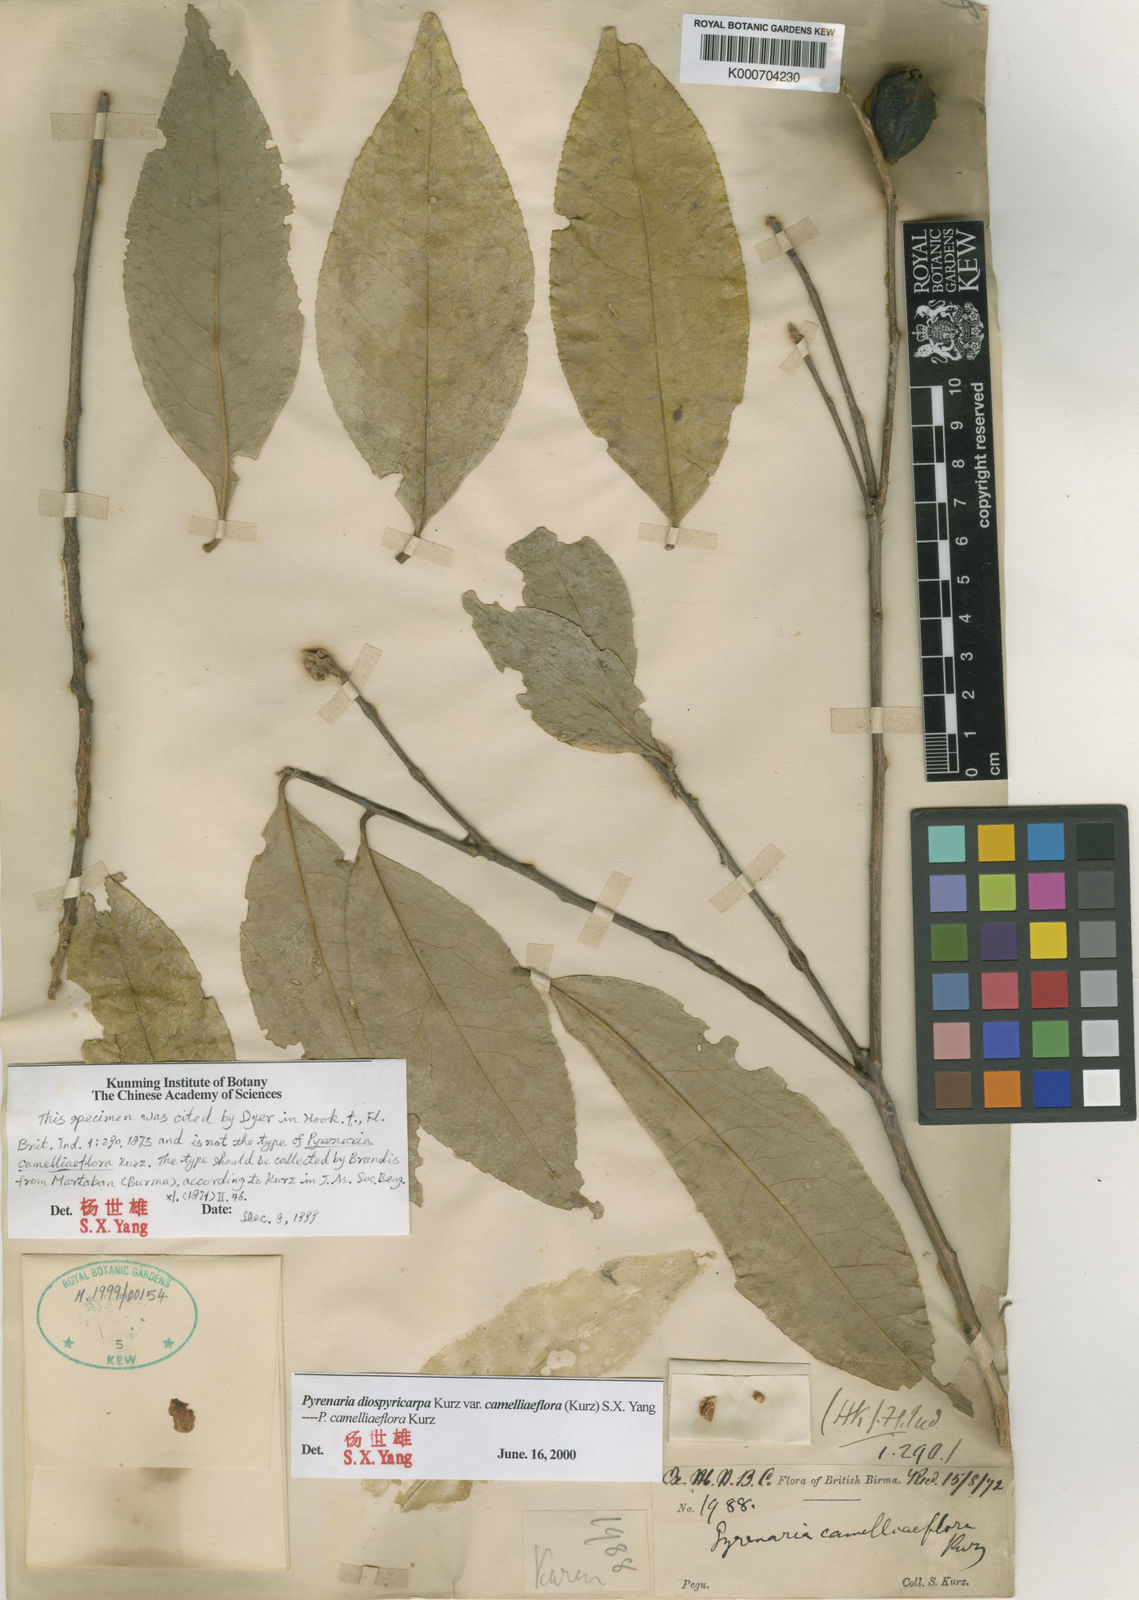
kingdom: Plantae
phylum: Tracheophyta
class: Magnoliopsida
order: Ericales
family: Theaceae
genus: Pyrenaria
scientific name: Pyrenaria diospyricarpa
